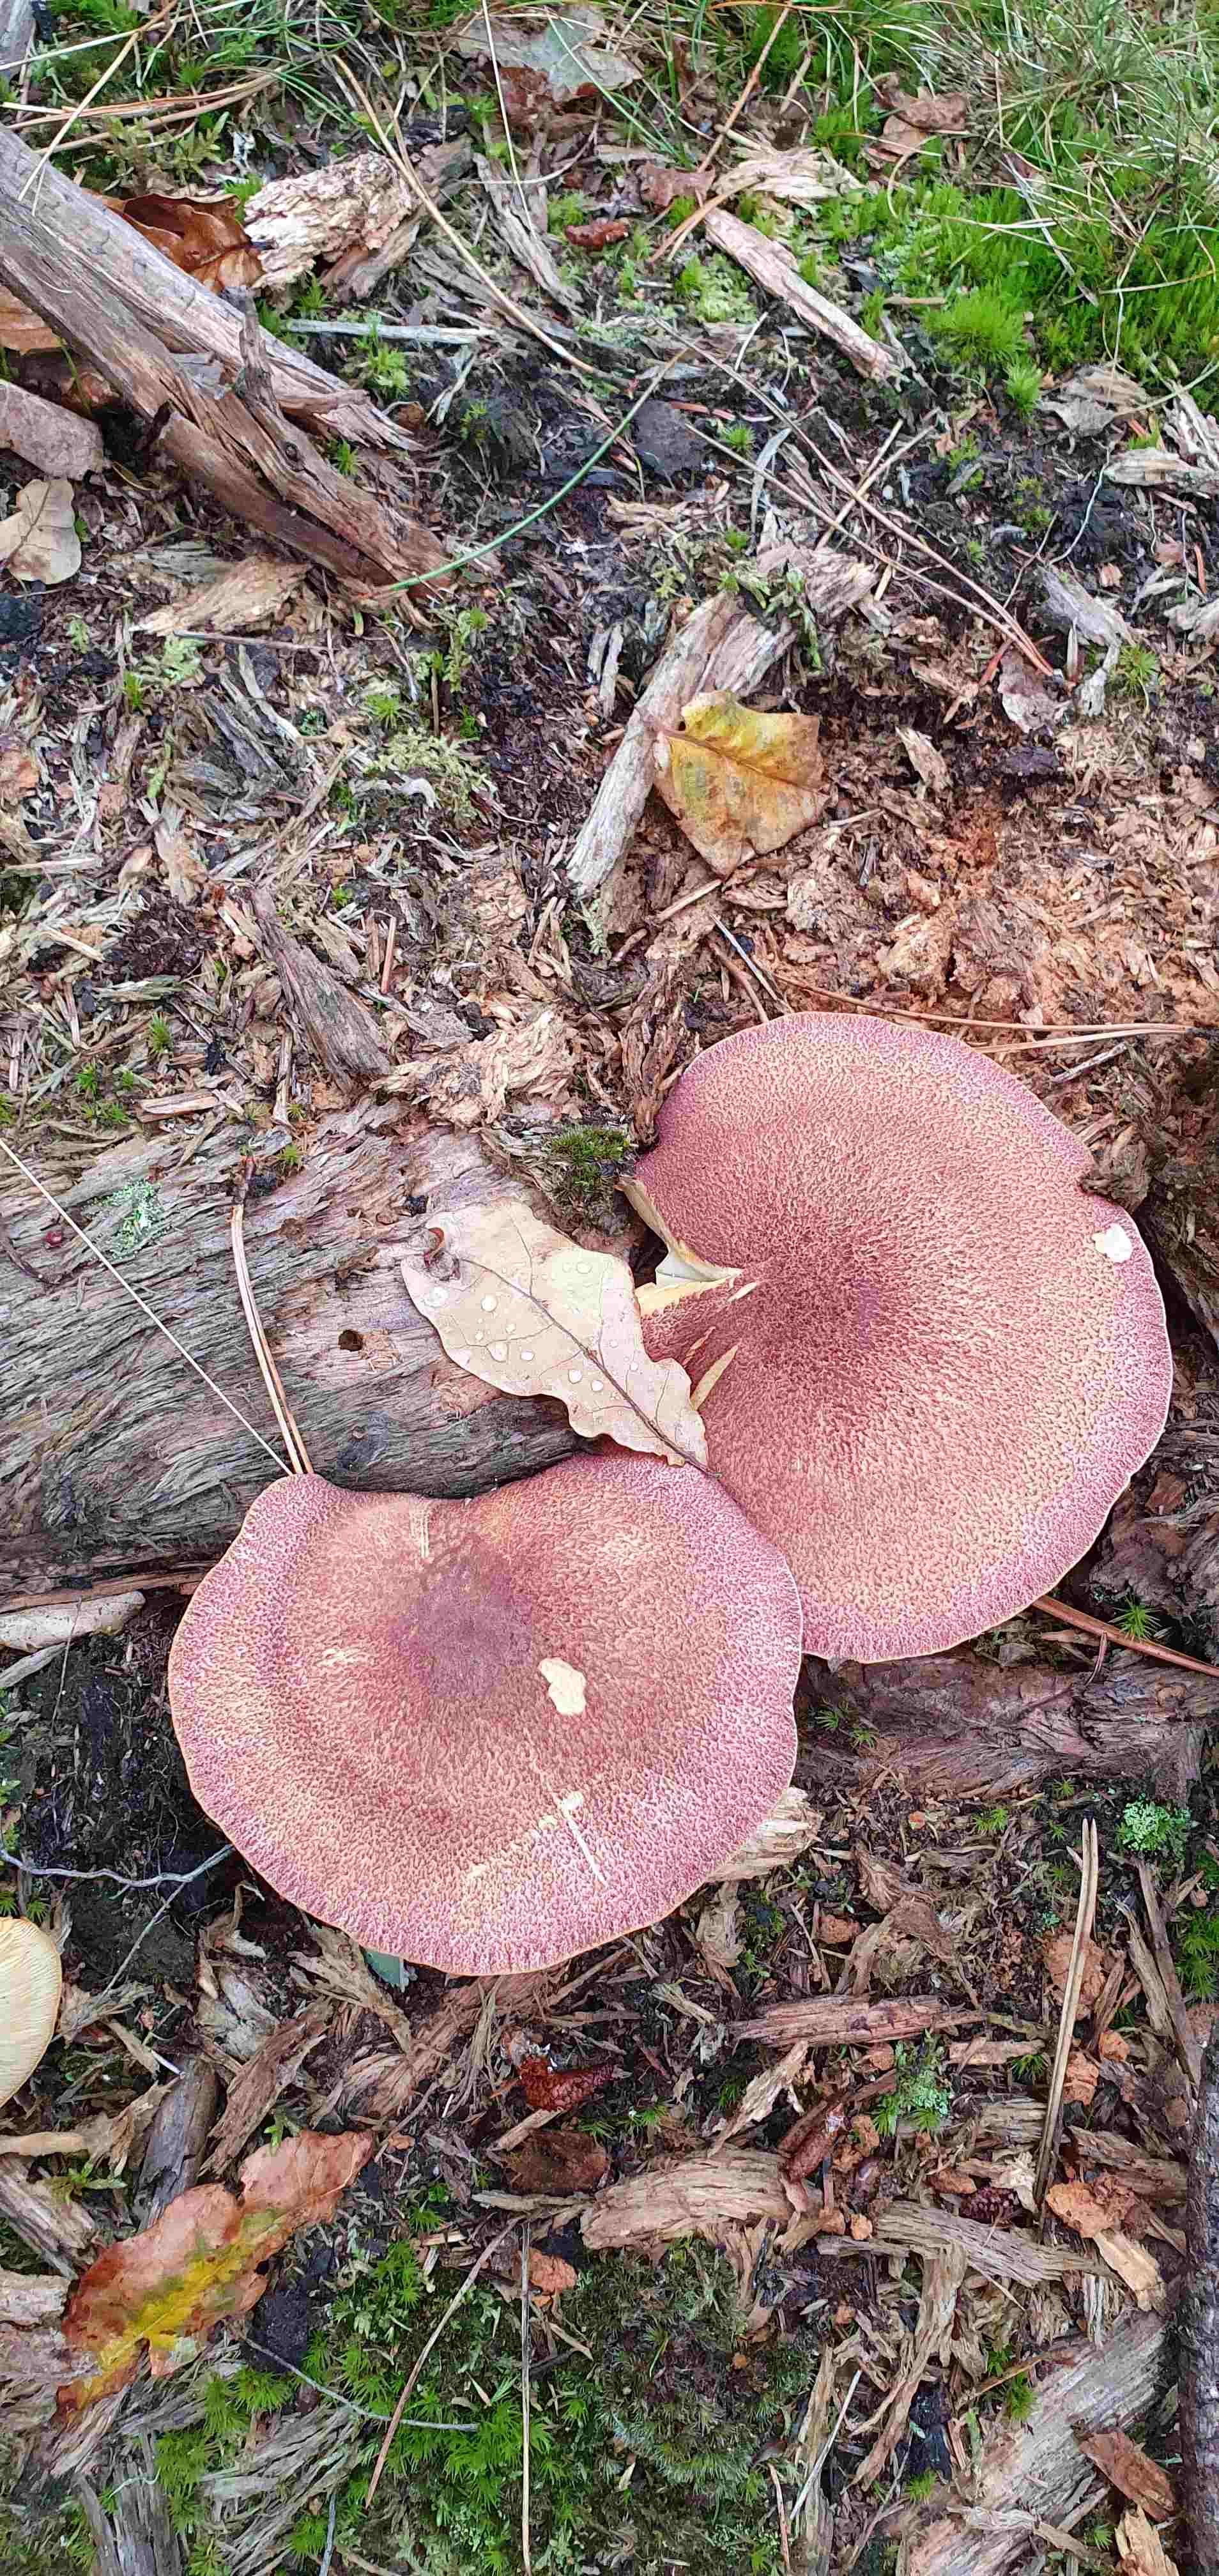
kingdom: Fungi
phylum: Basidiomycota
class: Agaricomycetes
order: Agaricales
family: Tricholomataceae
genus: Tricholomopsis
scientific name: Tricholomopsis rutilans
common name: purpur-væbnerhat
